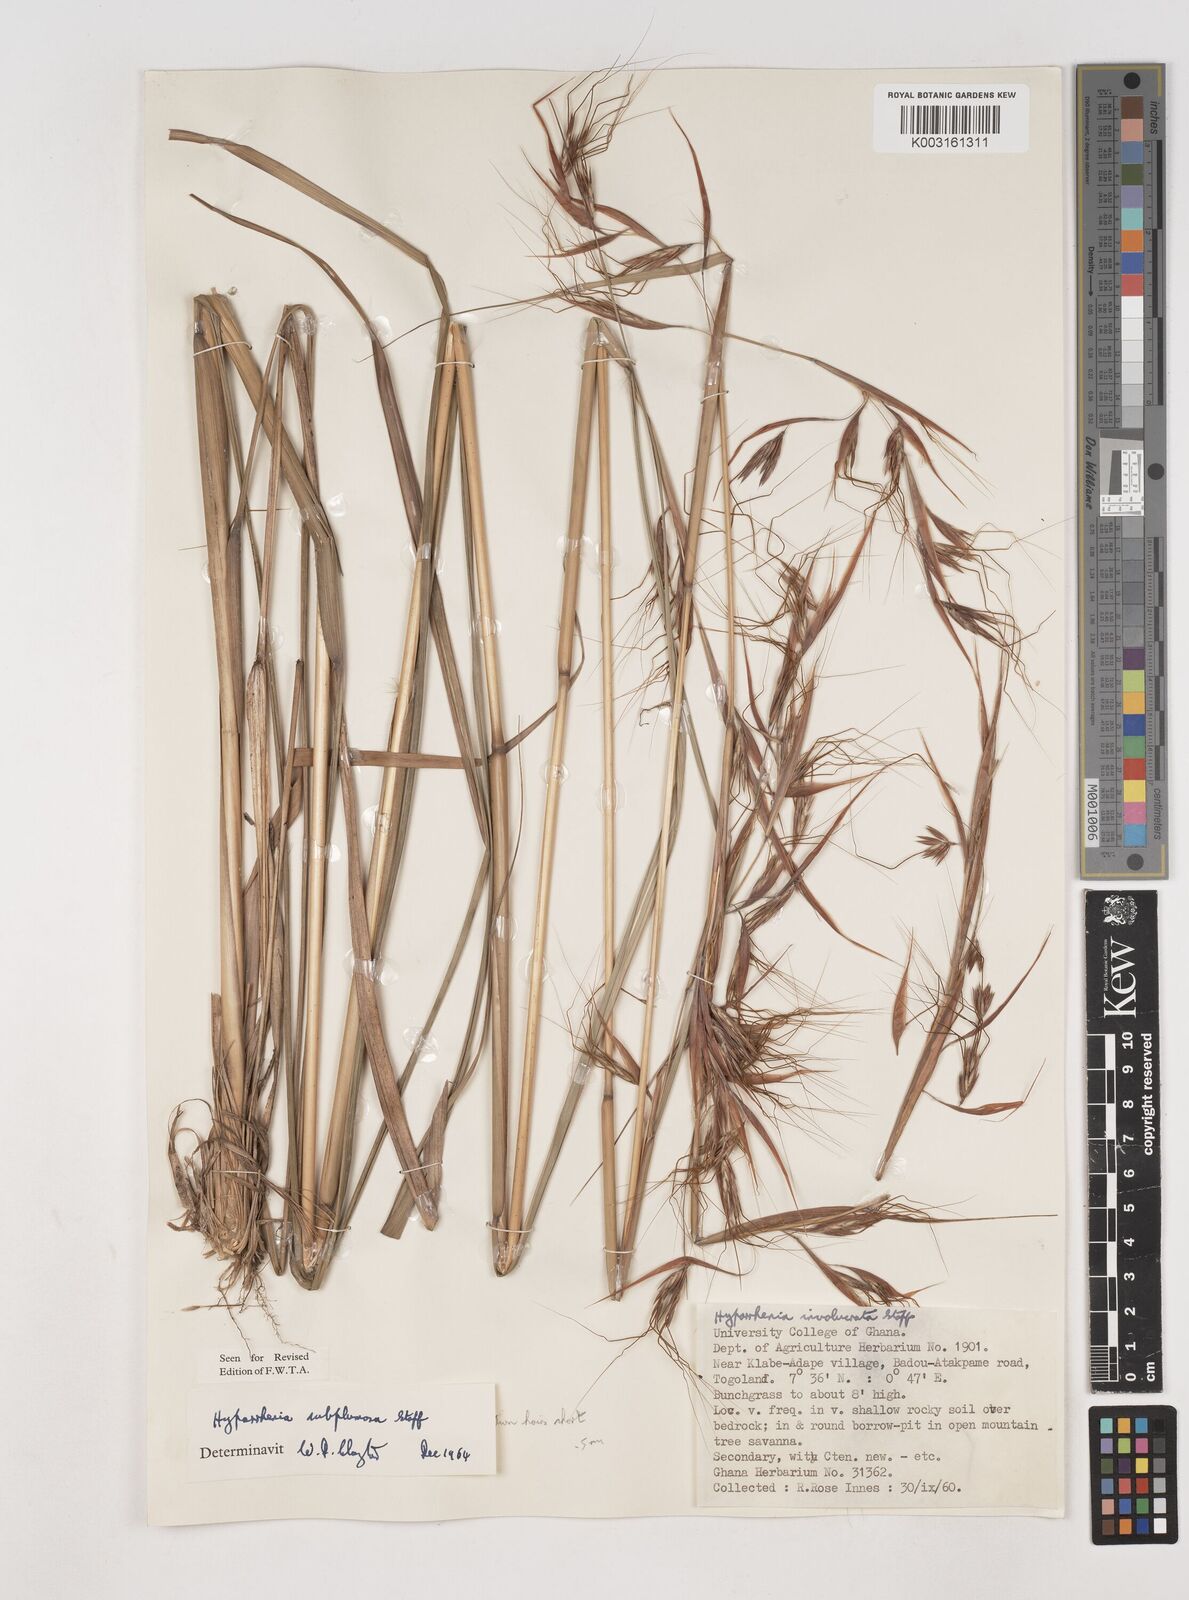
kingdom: Plantae
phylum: Tracheophyta
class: Liliopsida
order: Poales
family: Poaceae
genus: Hyparrhenia
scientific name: Hyparrhenia
